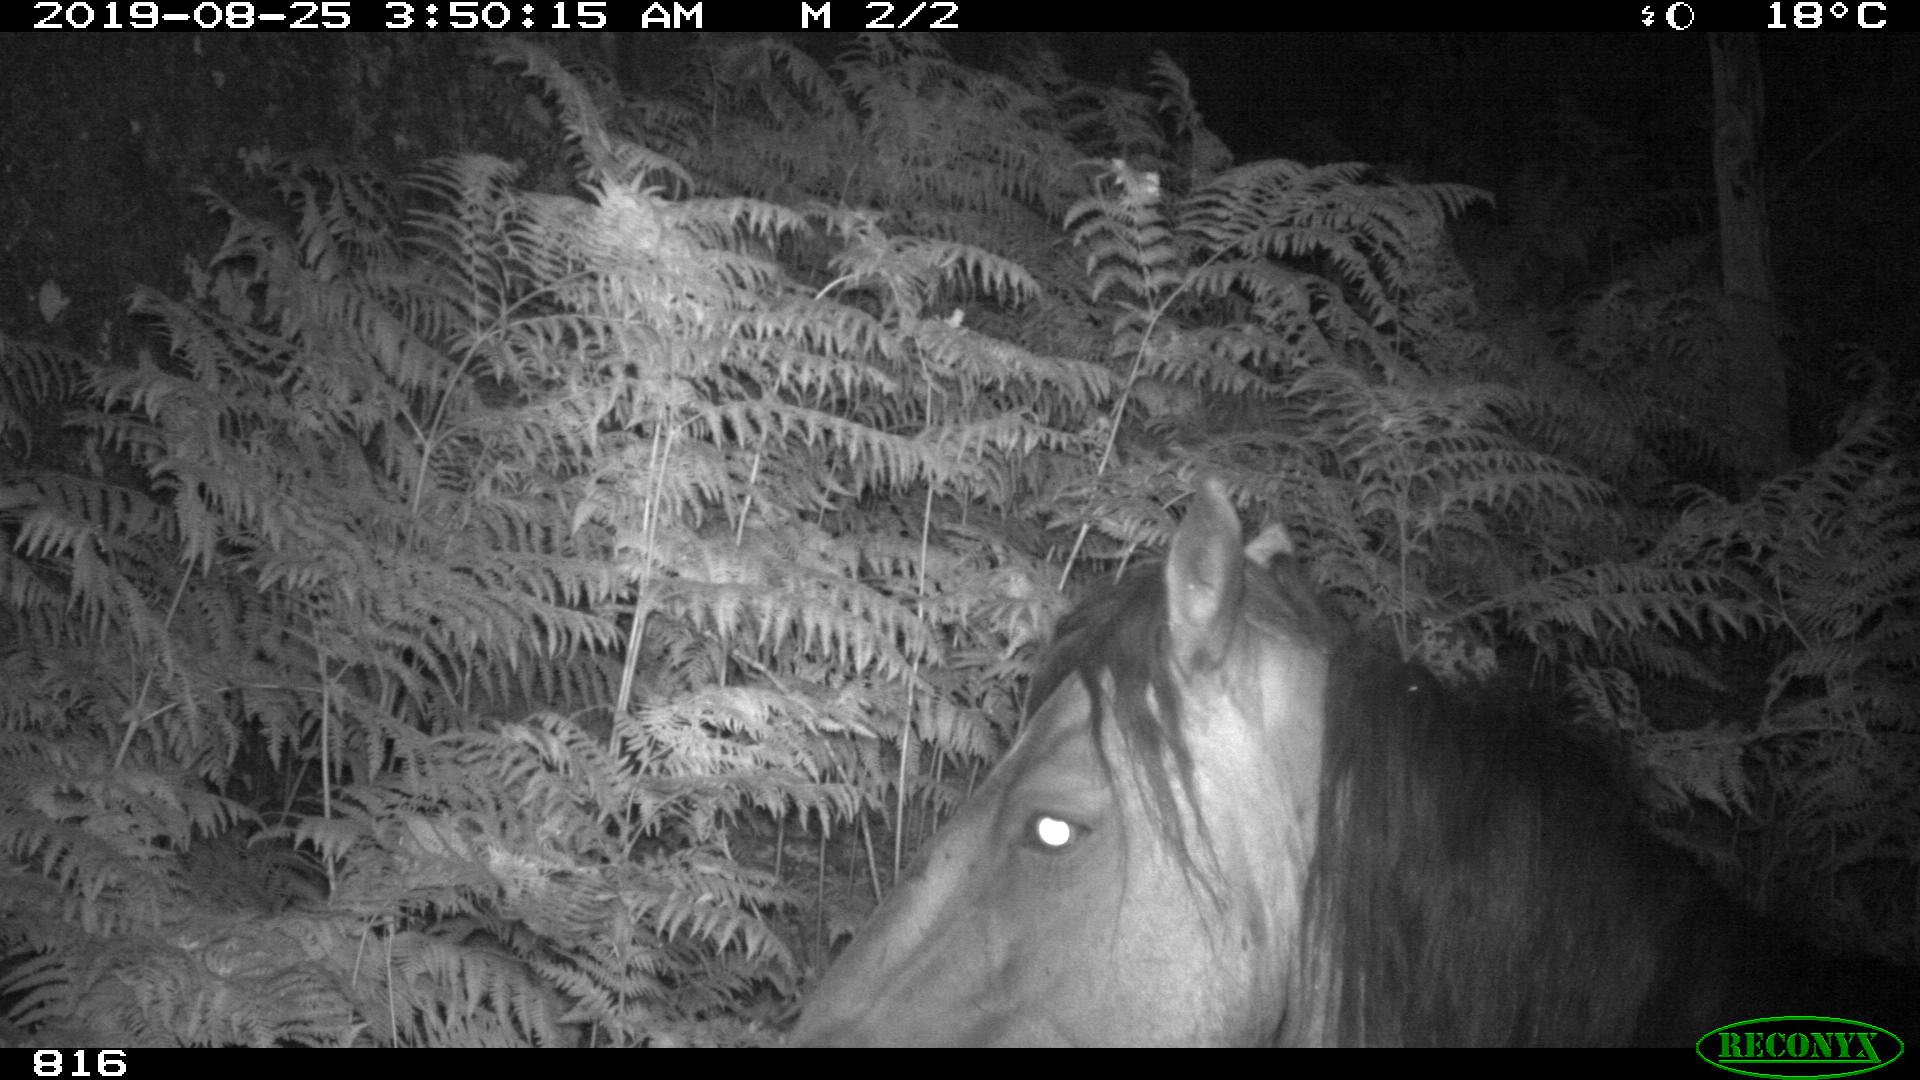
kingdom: Animalia
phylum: Chordata
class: Mammalia
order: Perissodactyla
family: Equidae
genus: Equus
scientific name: Equus caballus
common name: Horse
